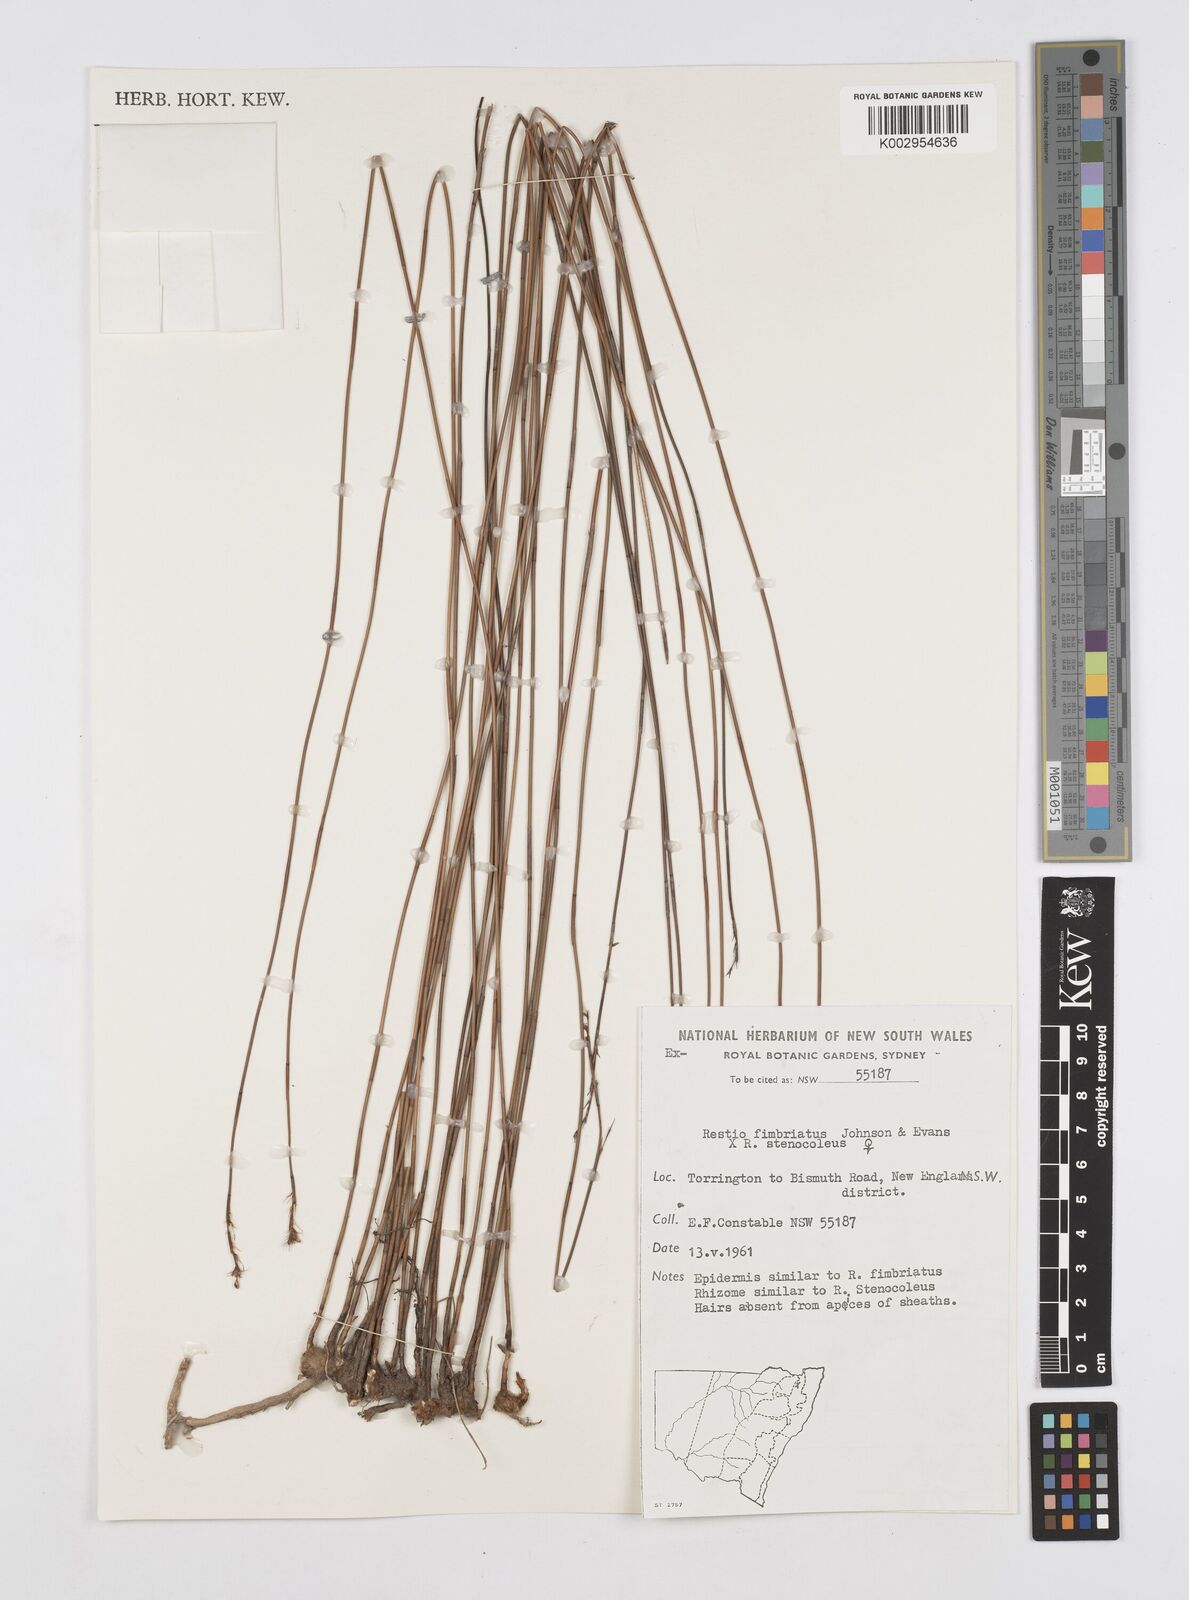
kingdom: Plantae
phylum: Tracheophyta
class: Liliopsida
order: Poales
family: Restionaceae
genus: Baloskion
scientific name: Baloskion fimbriatum
